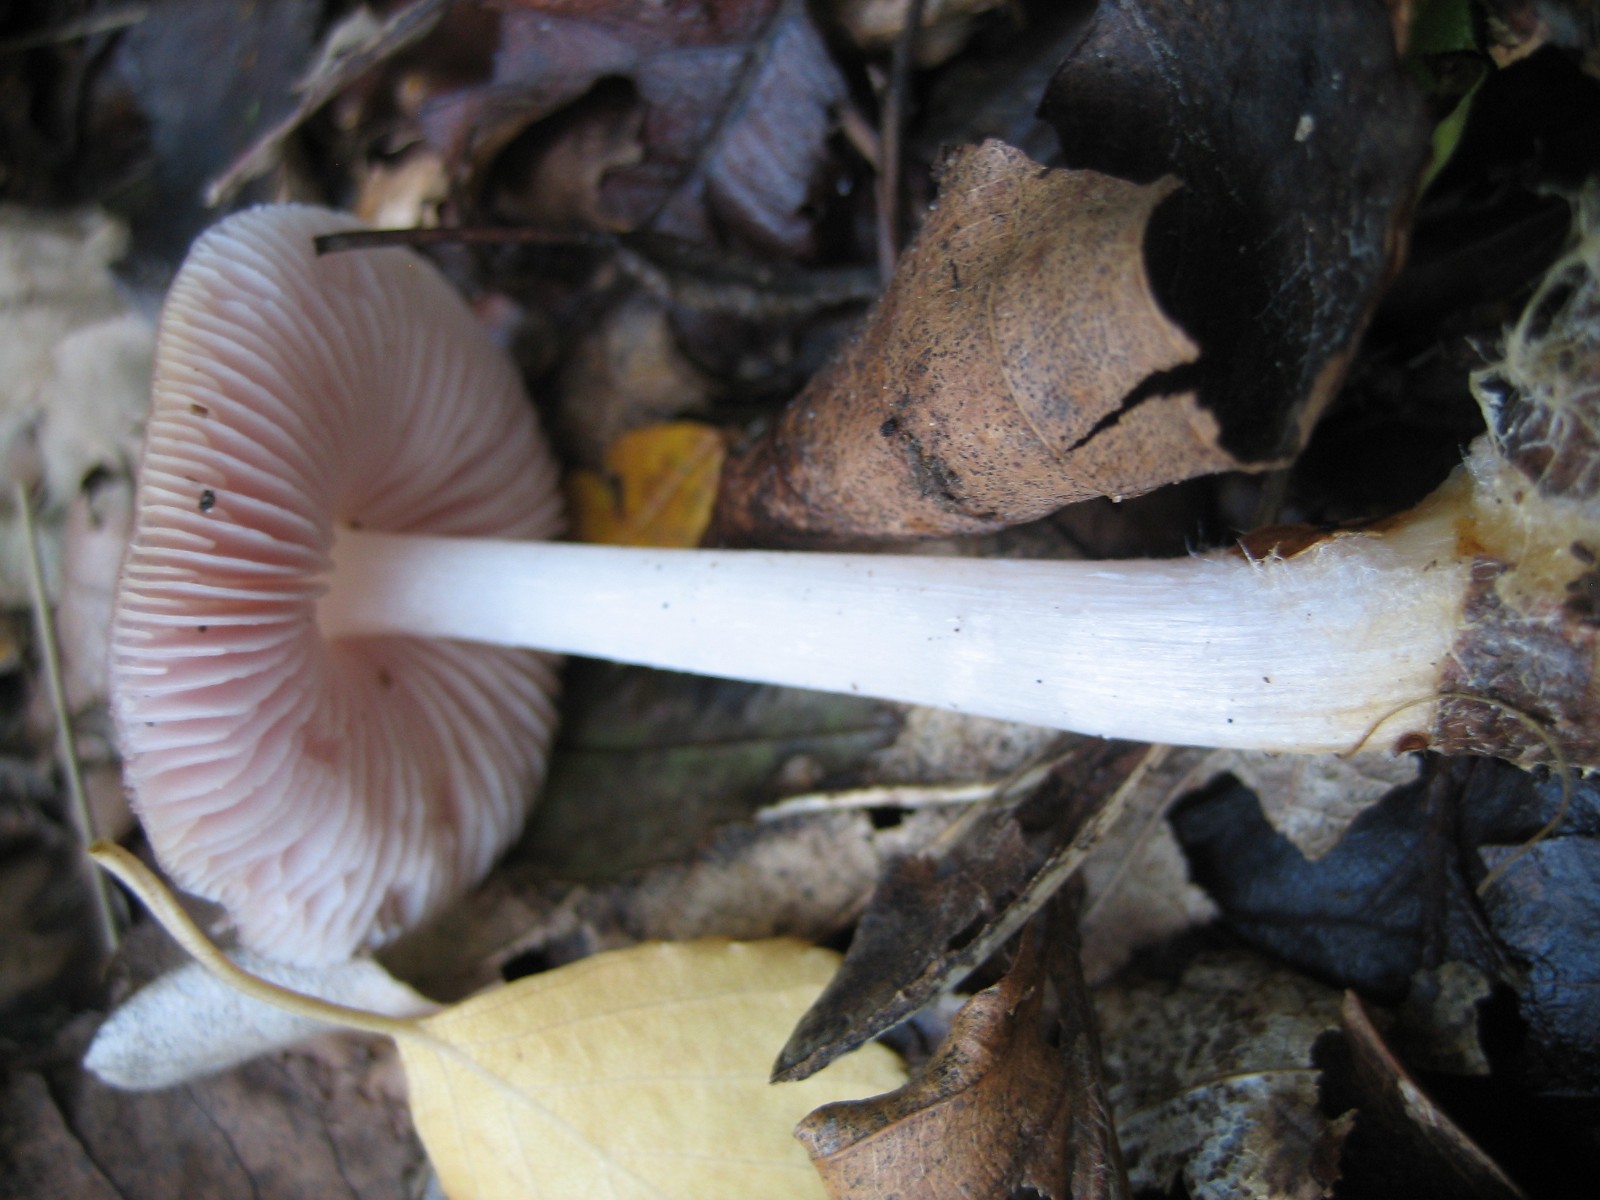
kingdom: Fungi
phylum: Basidiomycota
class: Agaricomycetes
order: Agaricales
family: Mycenaceae
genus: Mycena
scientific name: Mycena rosea
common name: rosa huesvamp
